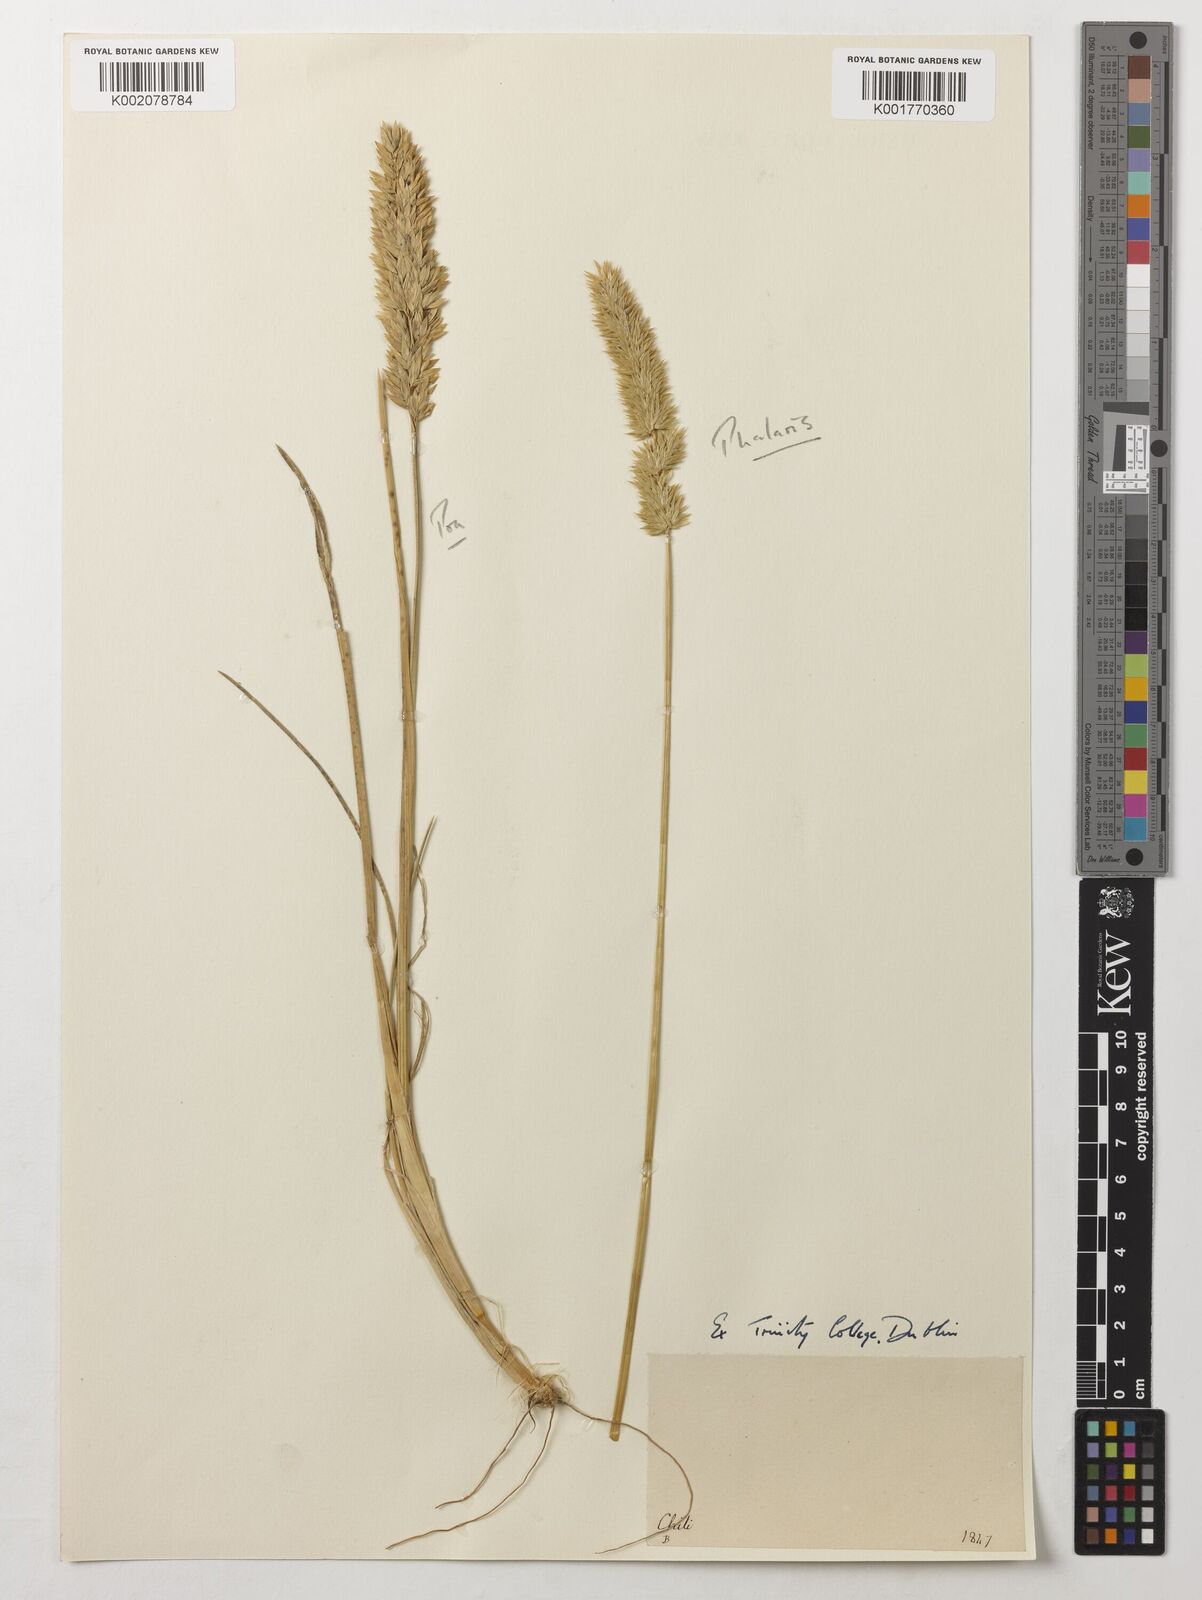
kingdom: Plantae
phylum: Tracheophyta
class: Liliopsida
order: Poales
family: Poaceae
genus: Phalaris
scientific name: Phalaris
